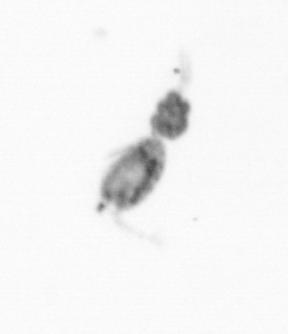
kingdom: Animalia
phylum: Arthropoda
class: Copepoda
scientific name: Copepoda
